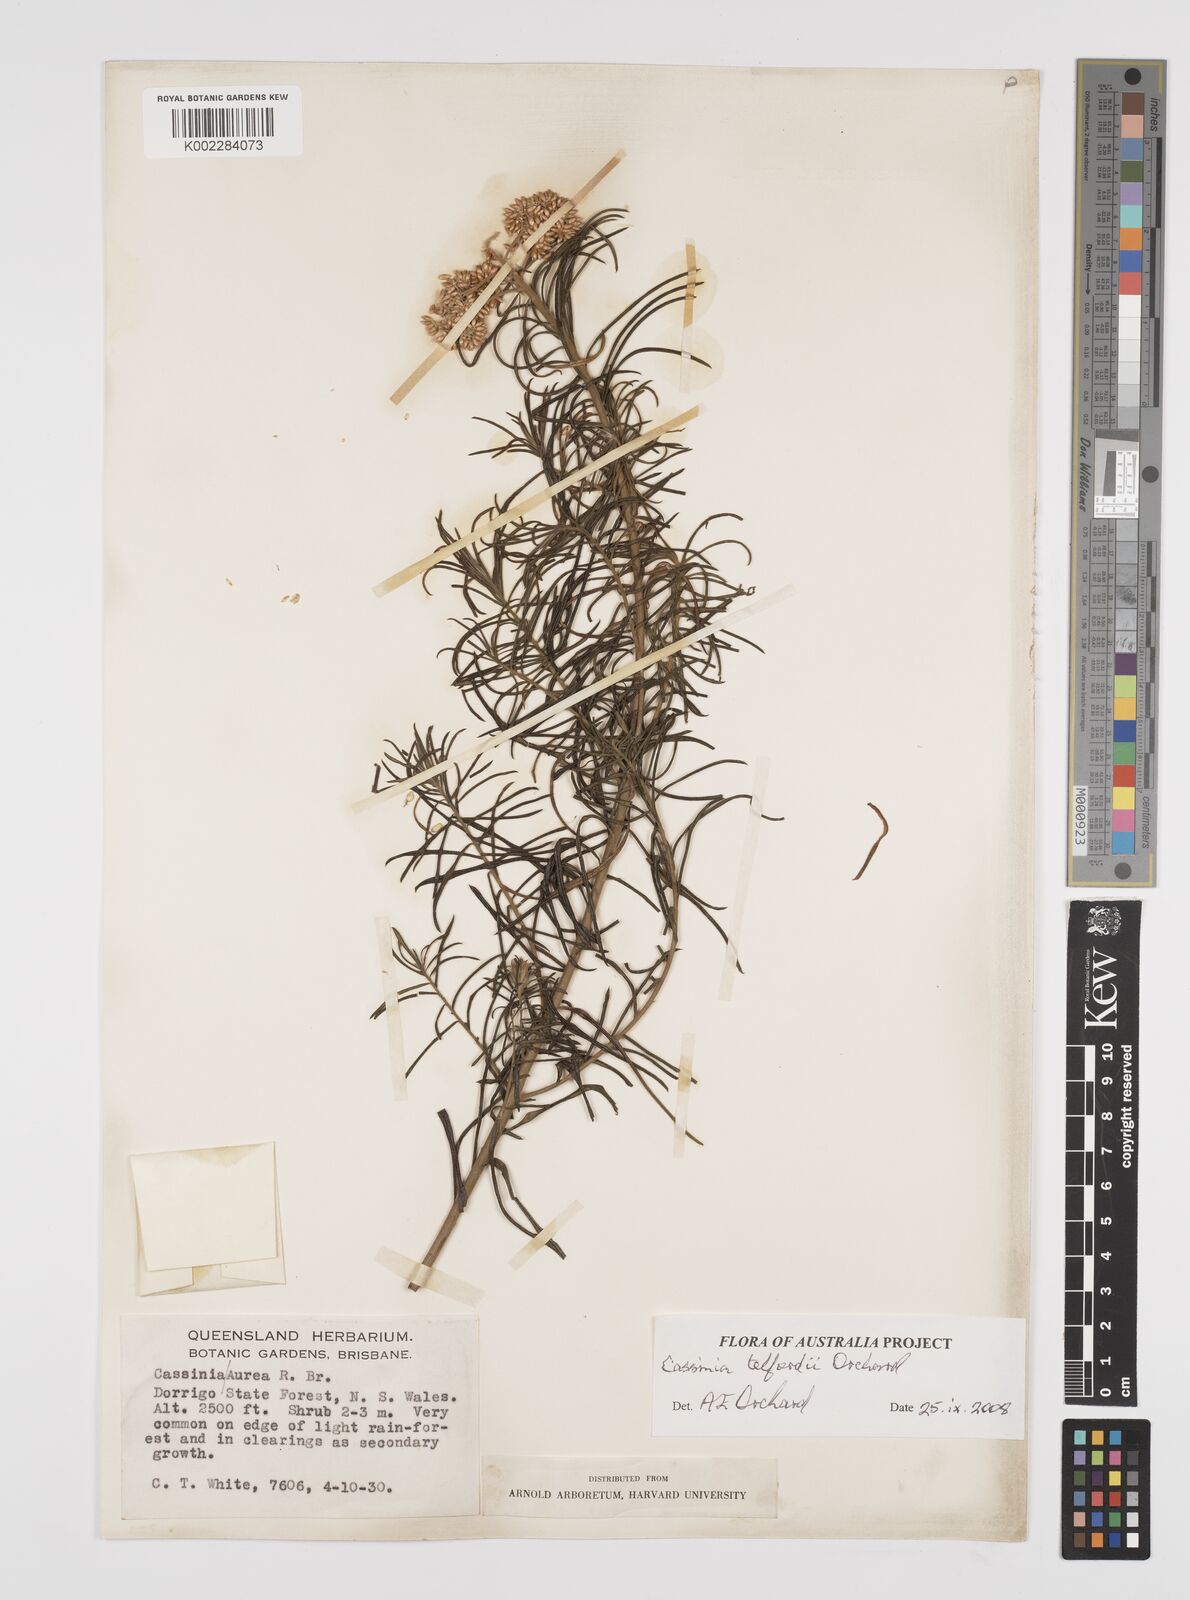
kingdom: Plantae
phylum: Tracheophyta
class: Magnoliopsida
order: Asterales
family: Asteraceae
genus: Cassinia
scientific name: Cassinia telfordii
